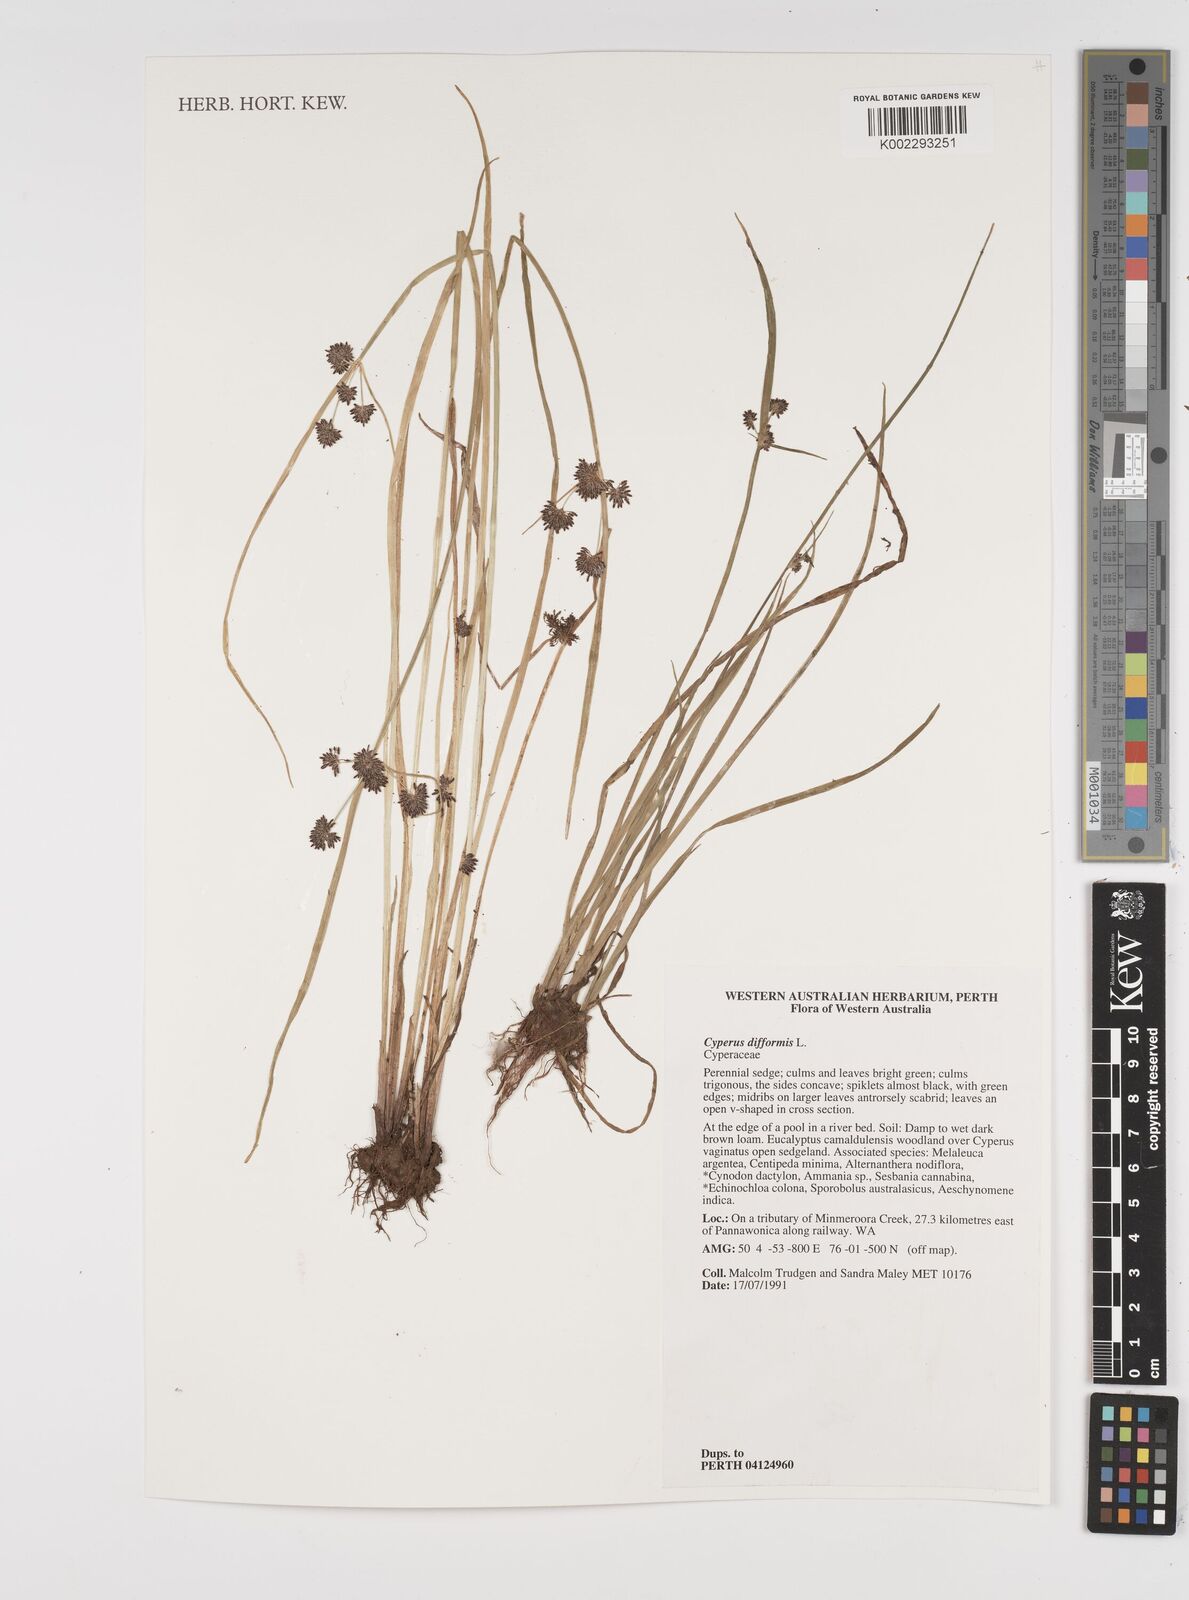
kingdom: Plantae
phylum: Tracheophyta
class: Liliopsida
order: Poales
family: Cyperaceae
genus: Cyperus
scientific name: Cyperus difformis
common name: Variable flatsedge
